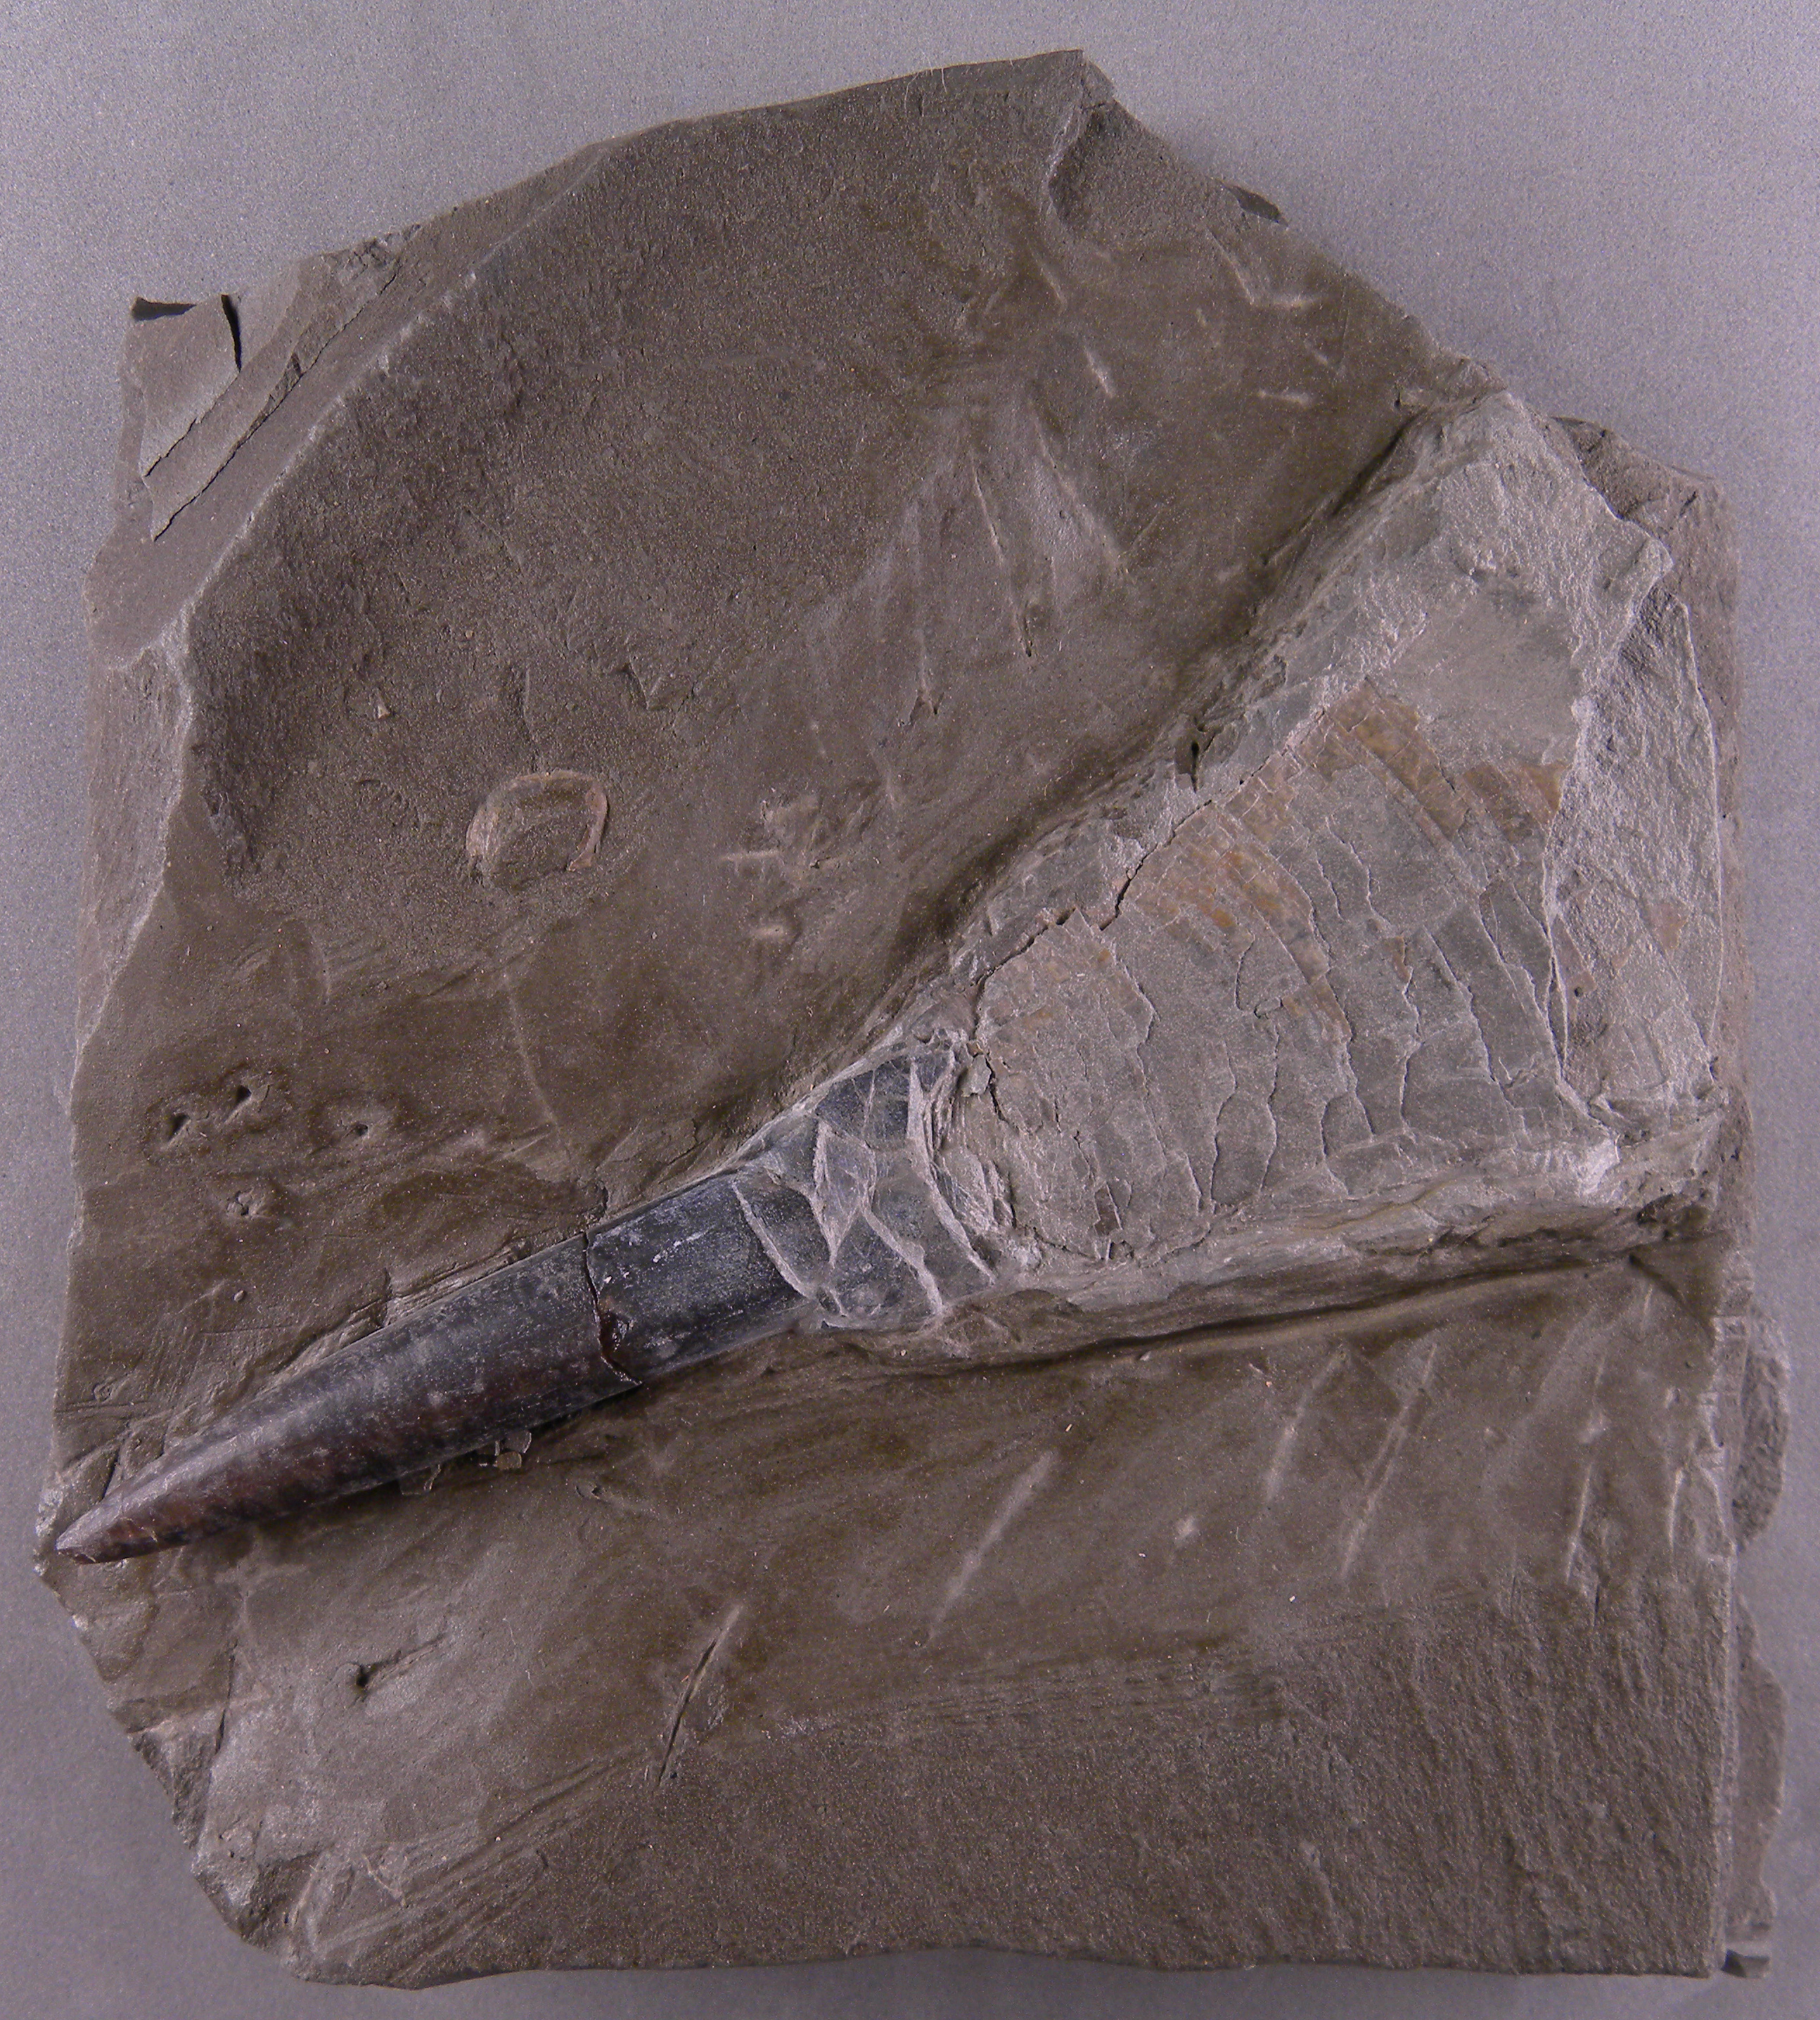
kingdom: Animalia
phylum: Mollusca
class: Cephalopoda
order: Belemnitida
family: Passaloteuthidae
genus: Passaloteuthis
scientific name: Passaloteuthis
